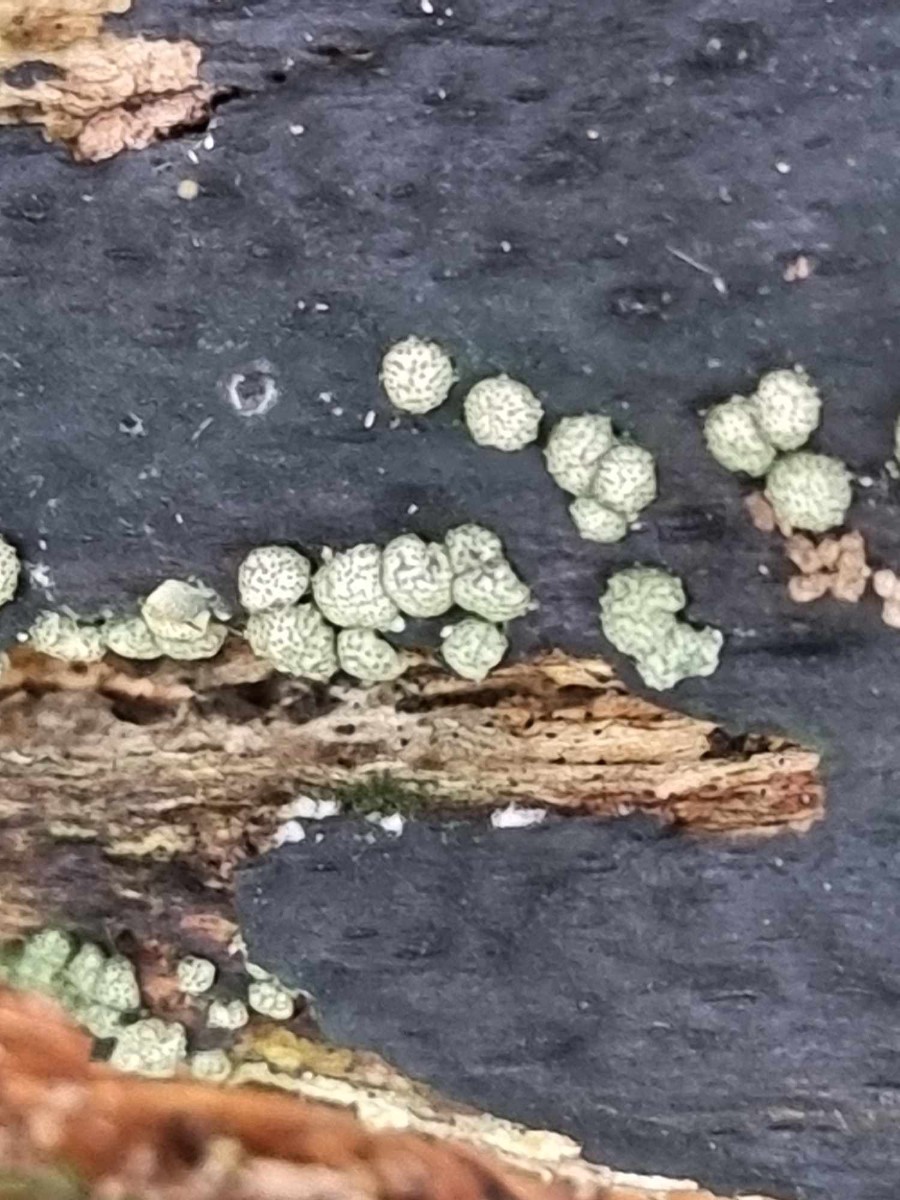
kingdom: Fungi
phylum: Ascomycota
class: Sordariomycetes
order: Hypocreales
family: Hypocreaceae
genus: Trichoderma
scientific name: Trichoderma strictipile
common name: grønprikket kødkerne
